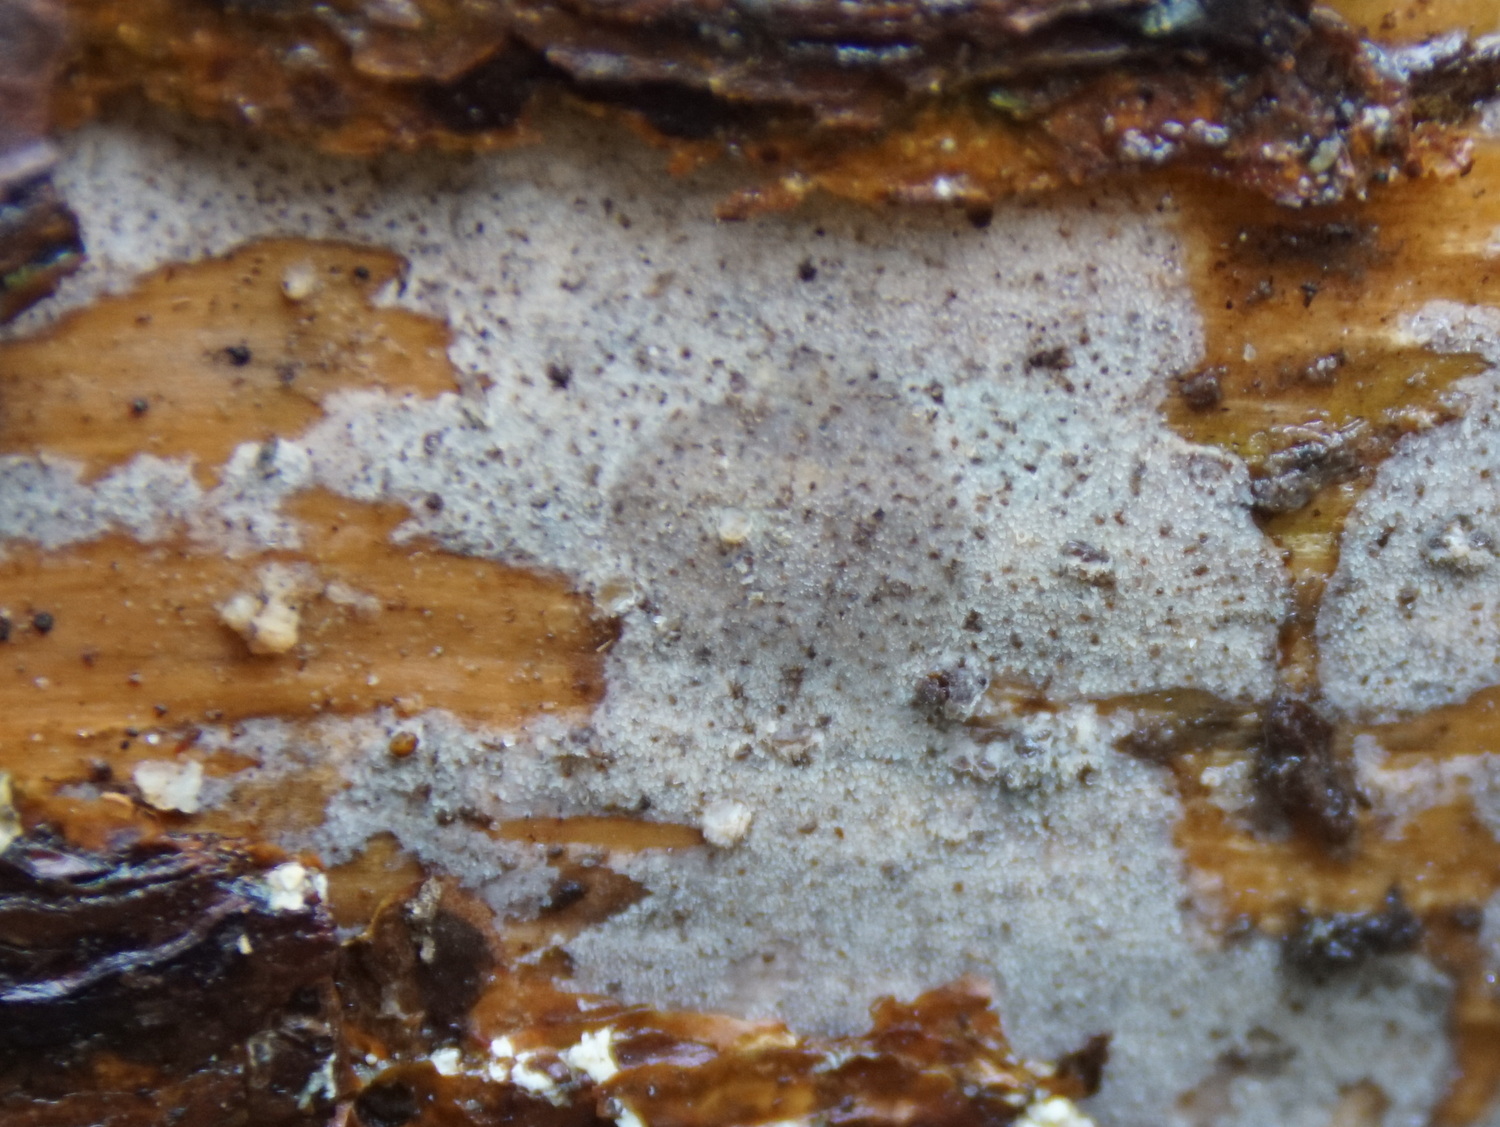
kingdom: Fungi
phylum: Basidiomycota
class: Agaricomycetes
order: Hymenochaetales
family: Rickenellaceae
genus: Resinicium
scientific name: Resinicium bicolor
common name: almindelig vokstand
